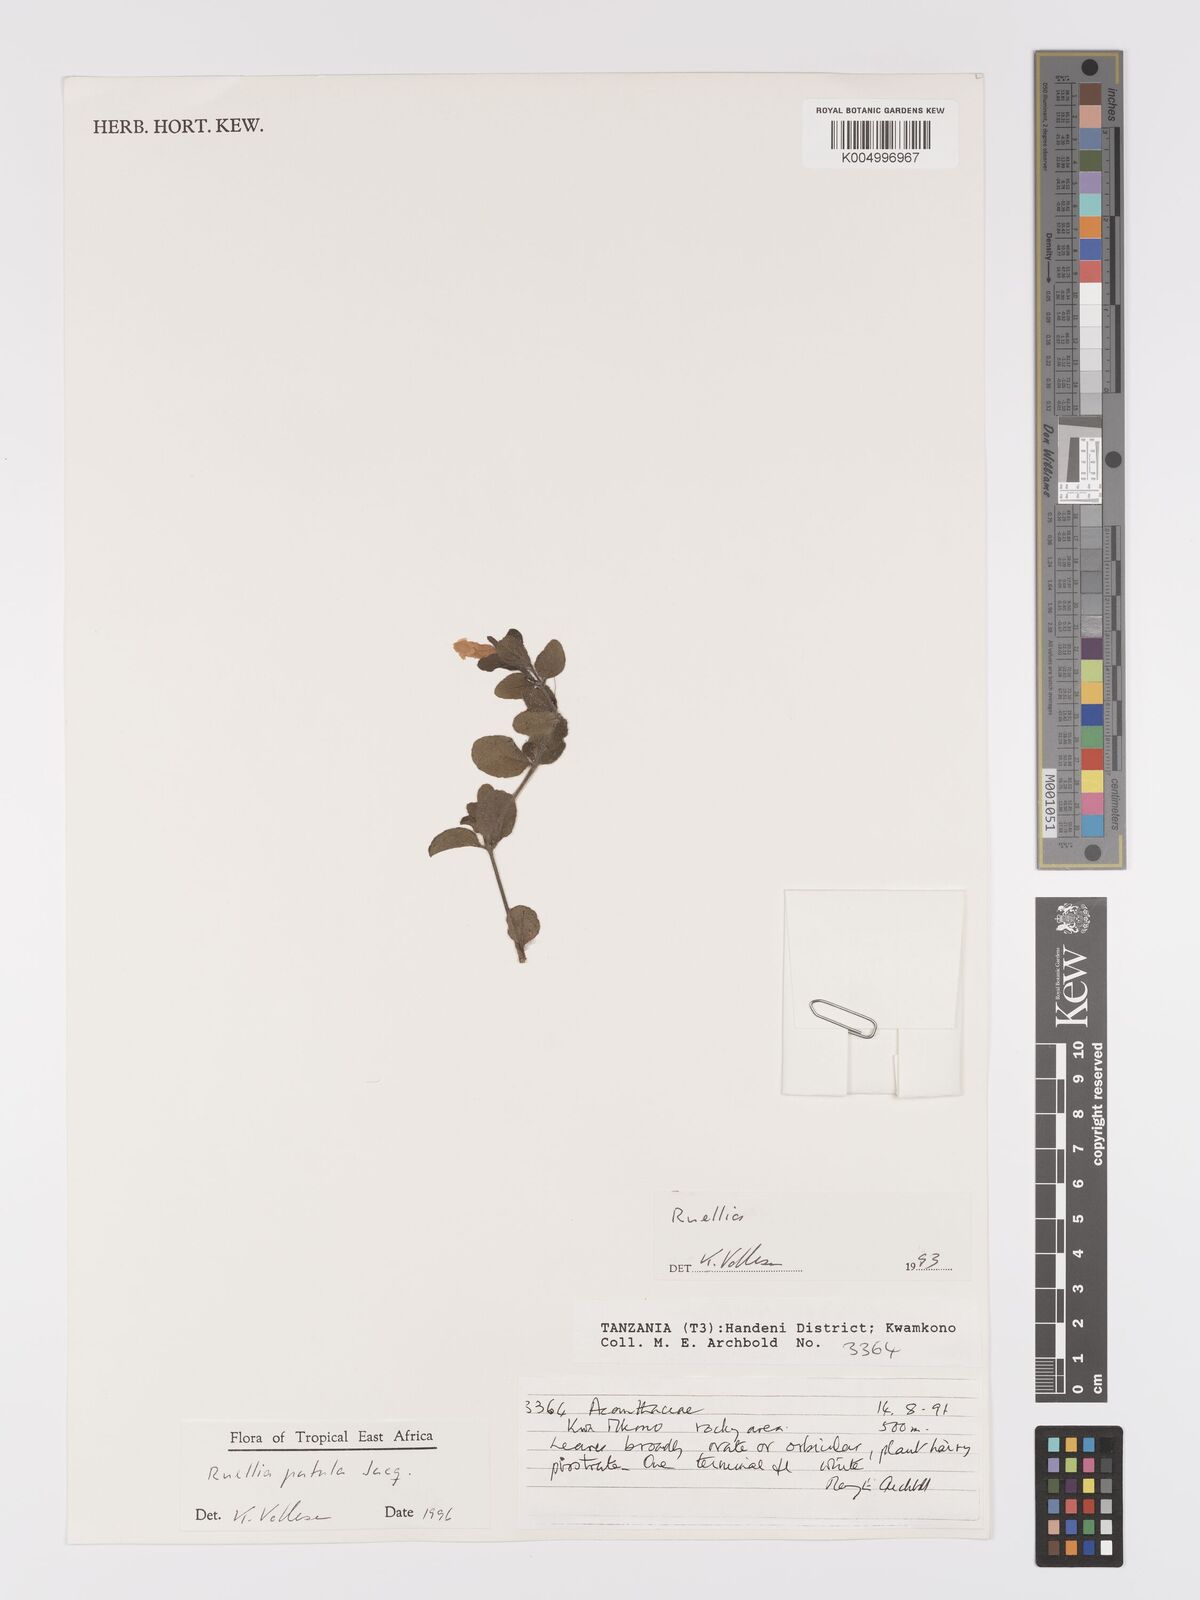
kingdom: Plantae
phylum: Tracheophyta
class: Magnoliopsida
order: Lamiales
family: Acanthaceae
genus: Ruellia
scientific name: Ruellia patula
